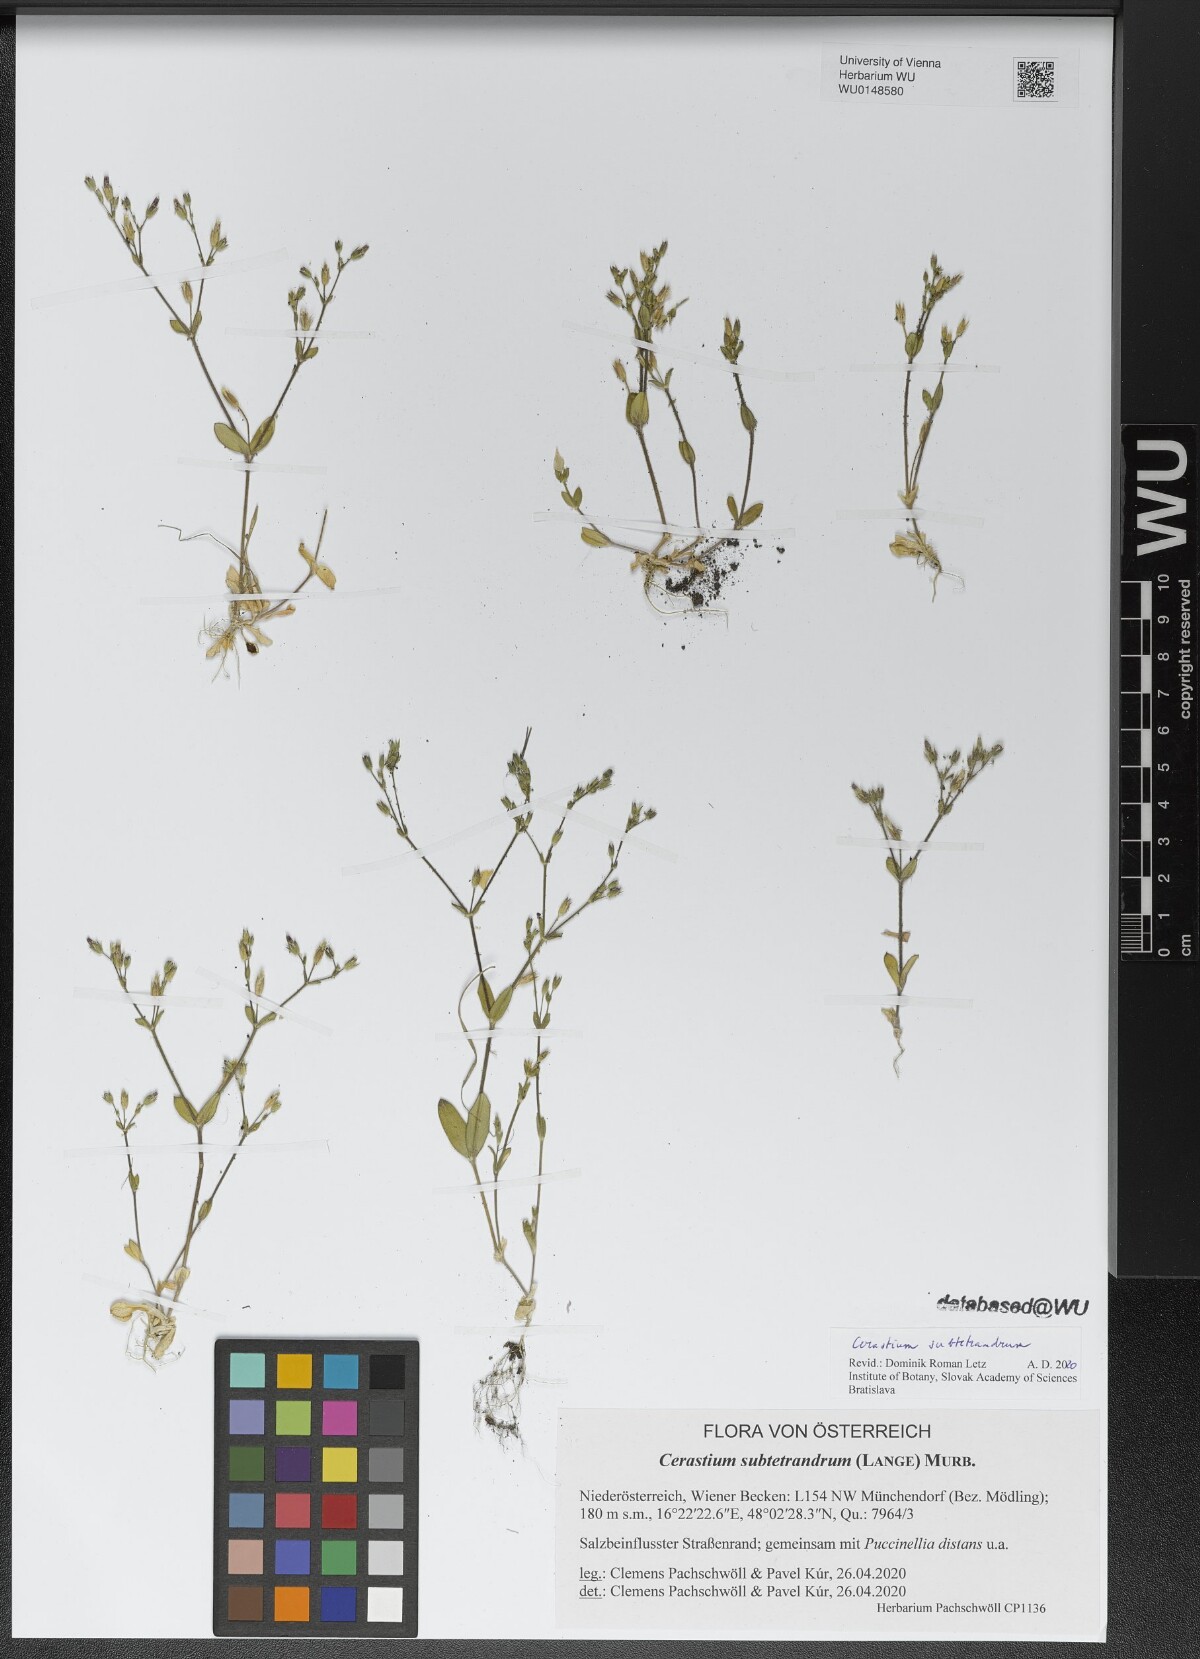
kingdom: Plantae
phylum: Tracheophyta
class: Magnoliopsida
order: Caryophyllales
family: Caryophyllaceae
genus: Cerastium
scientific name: Cerastium subtetrandrum
